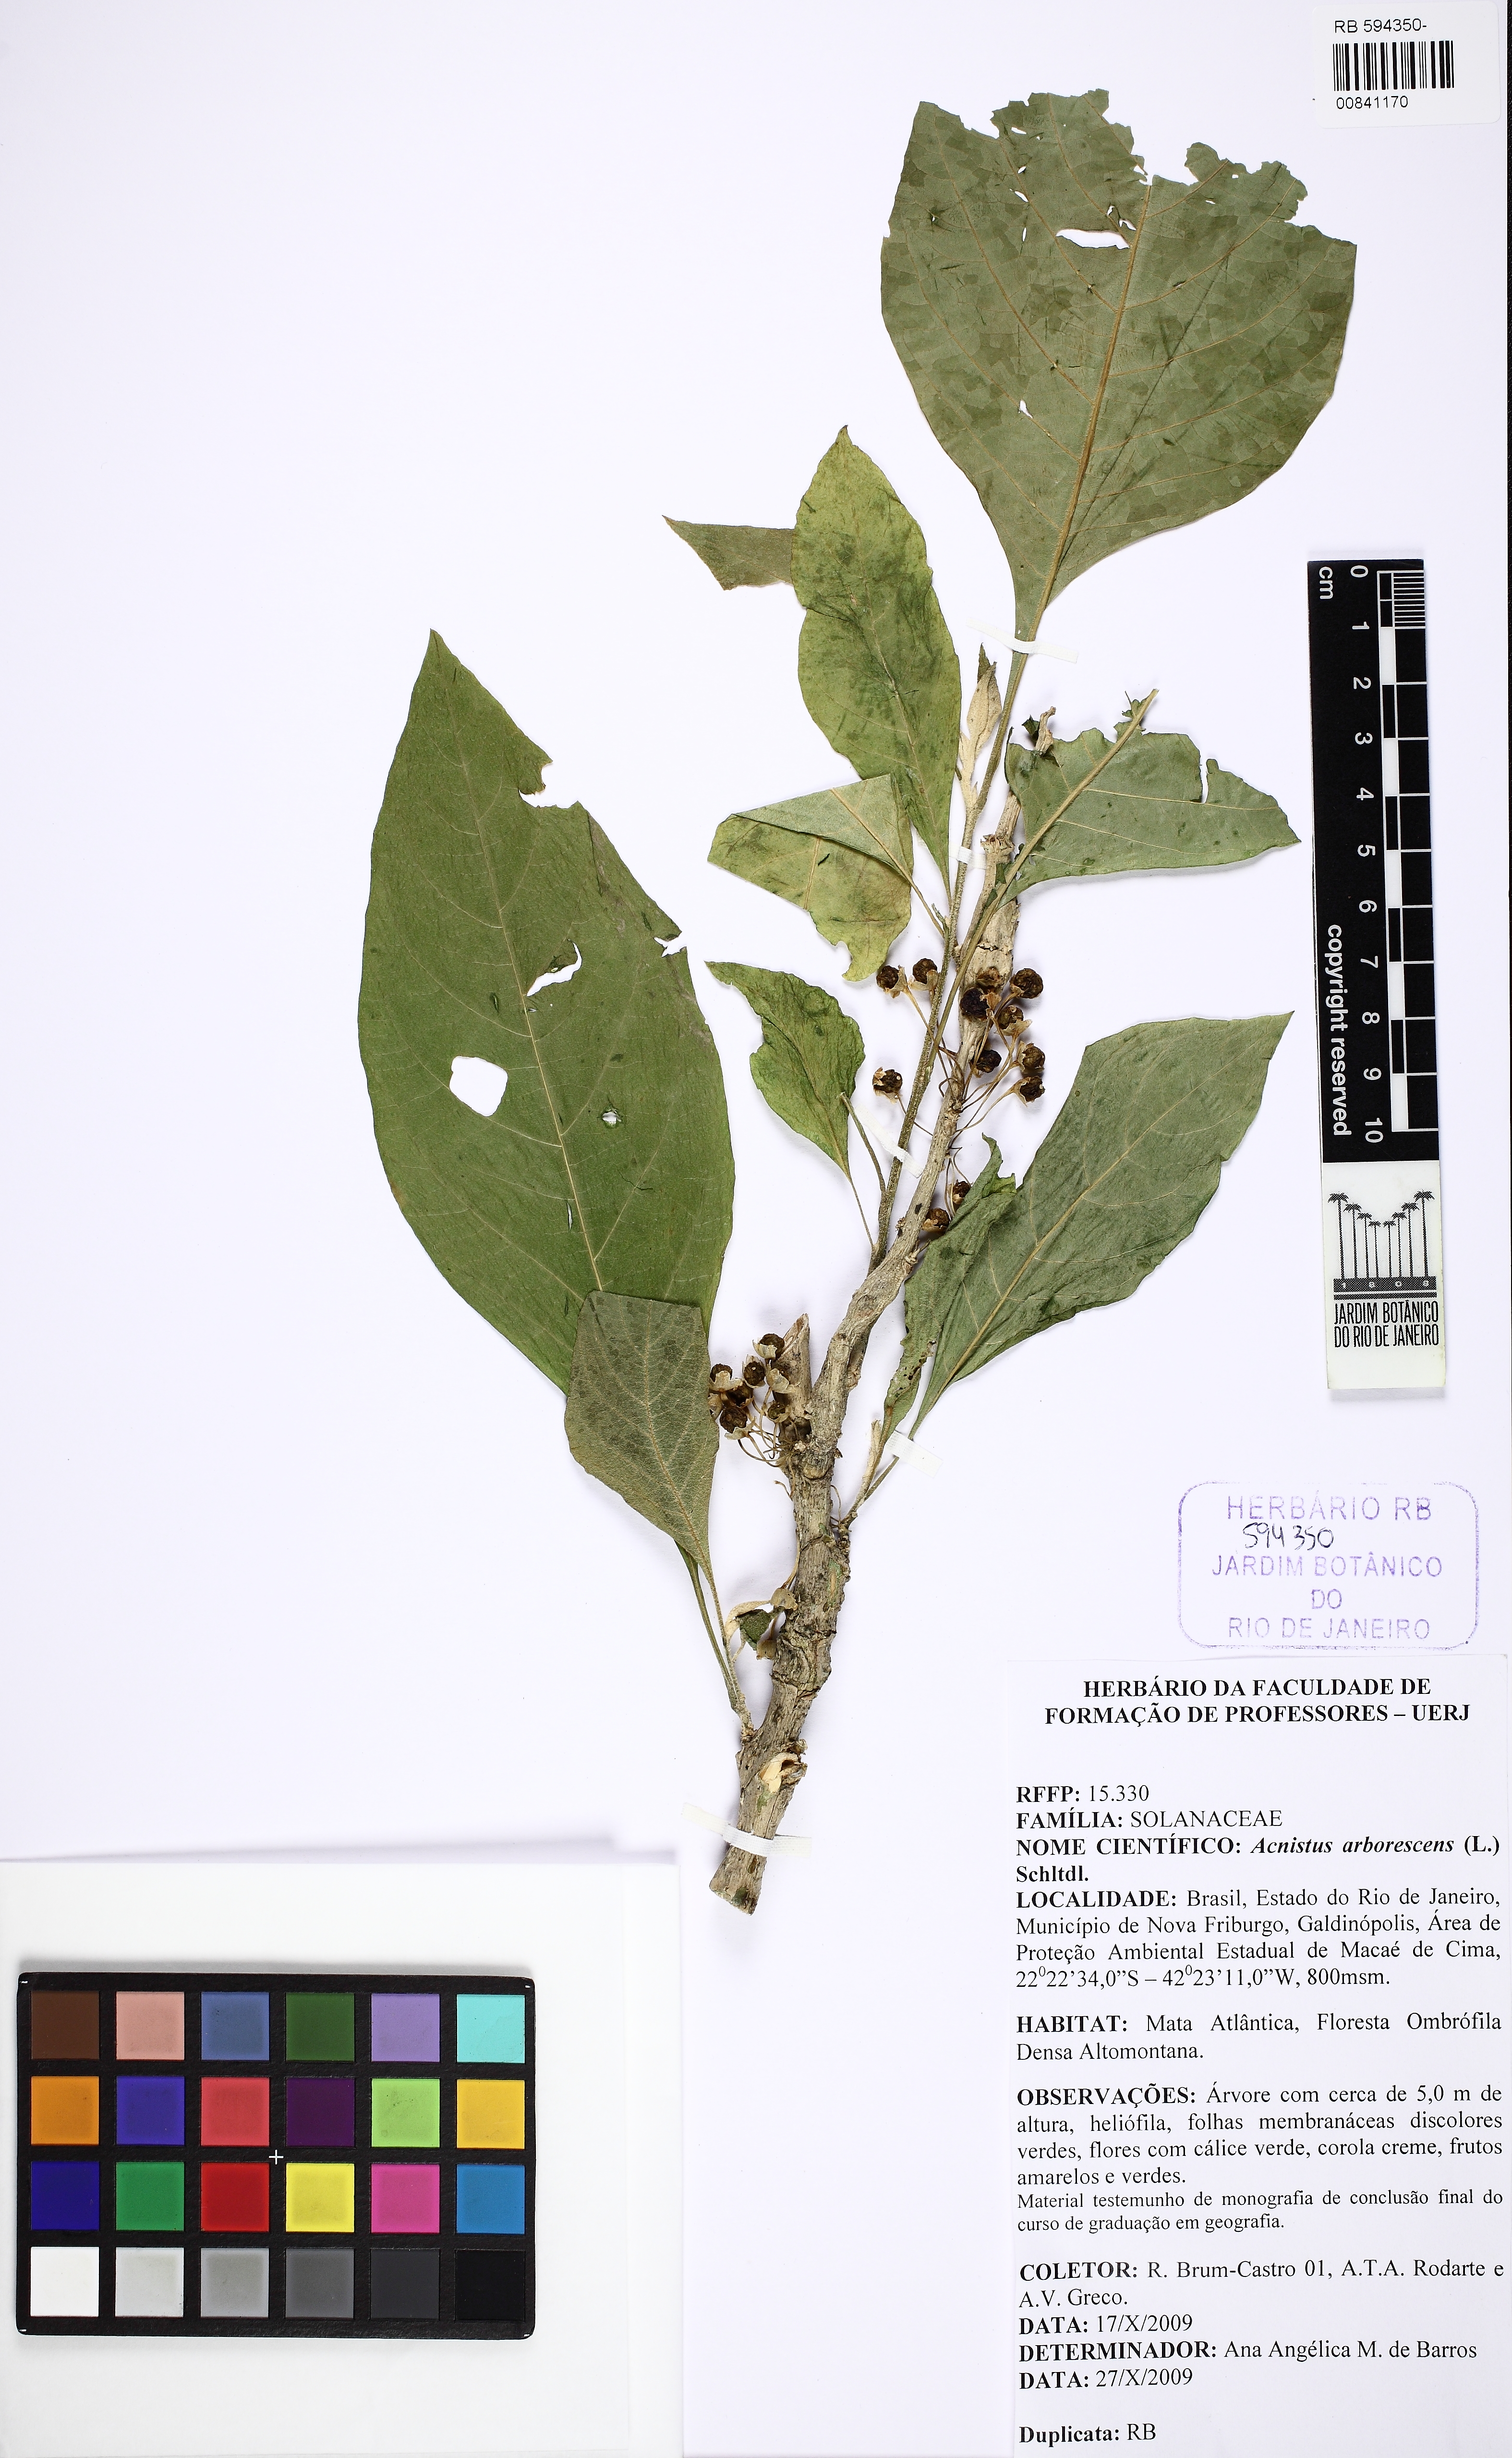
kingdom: Plantae
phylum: Tracheophyta
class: Magnoliopsida
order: Solanales
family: Solanaceae
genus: Iochroma
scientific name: Iochroma arborescens
